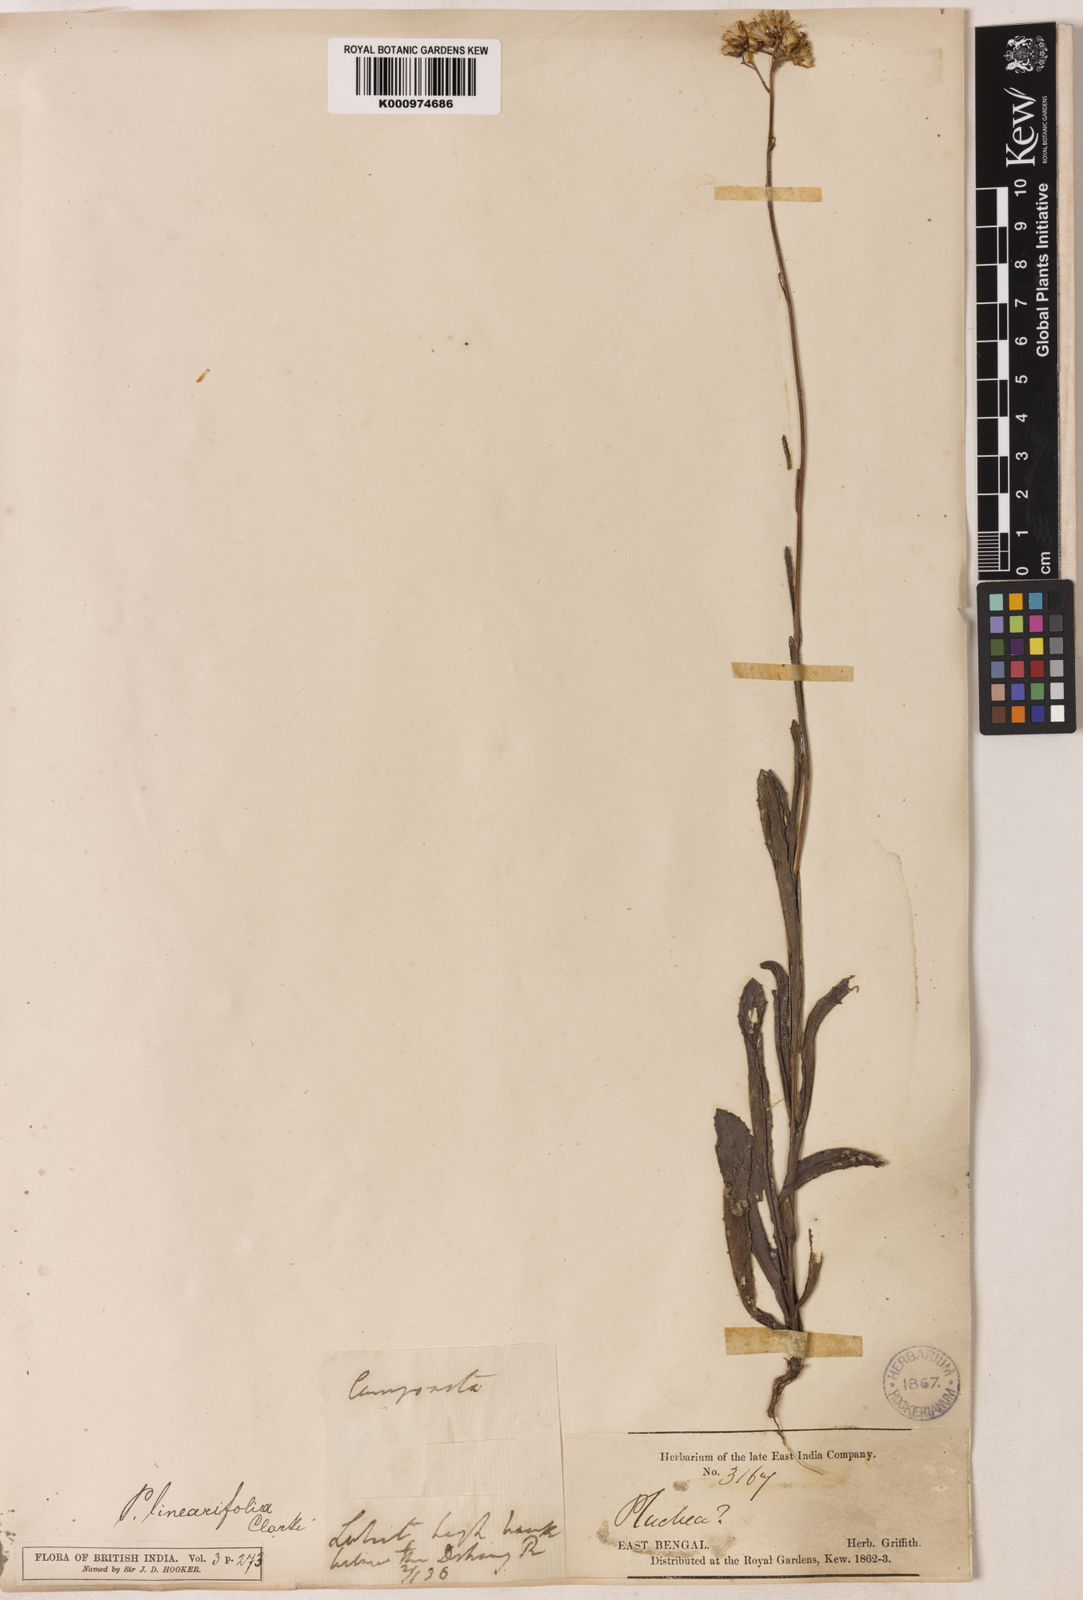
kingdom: Plantae
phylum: Tracheophyta
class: Magnoliopsida
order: Asterales
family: Asteraceae
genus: Pluchea
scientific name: Pluchea linearifolia
